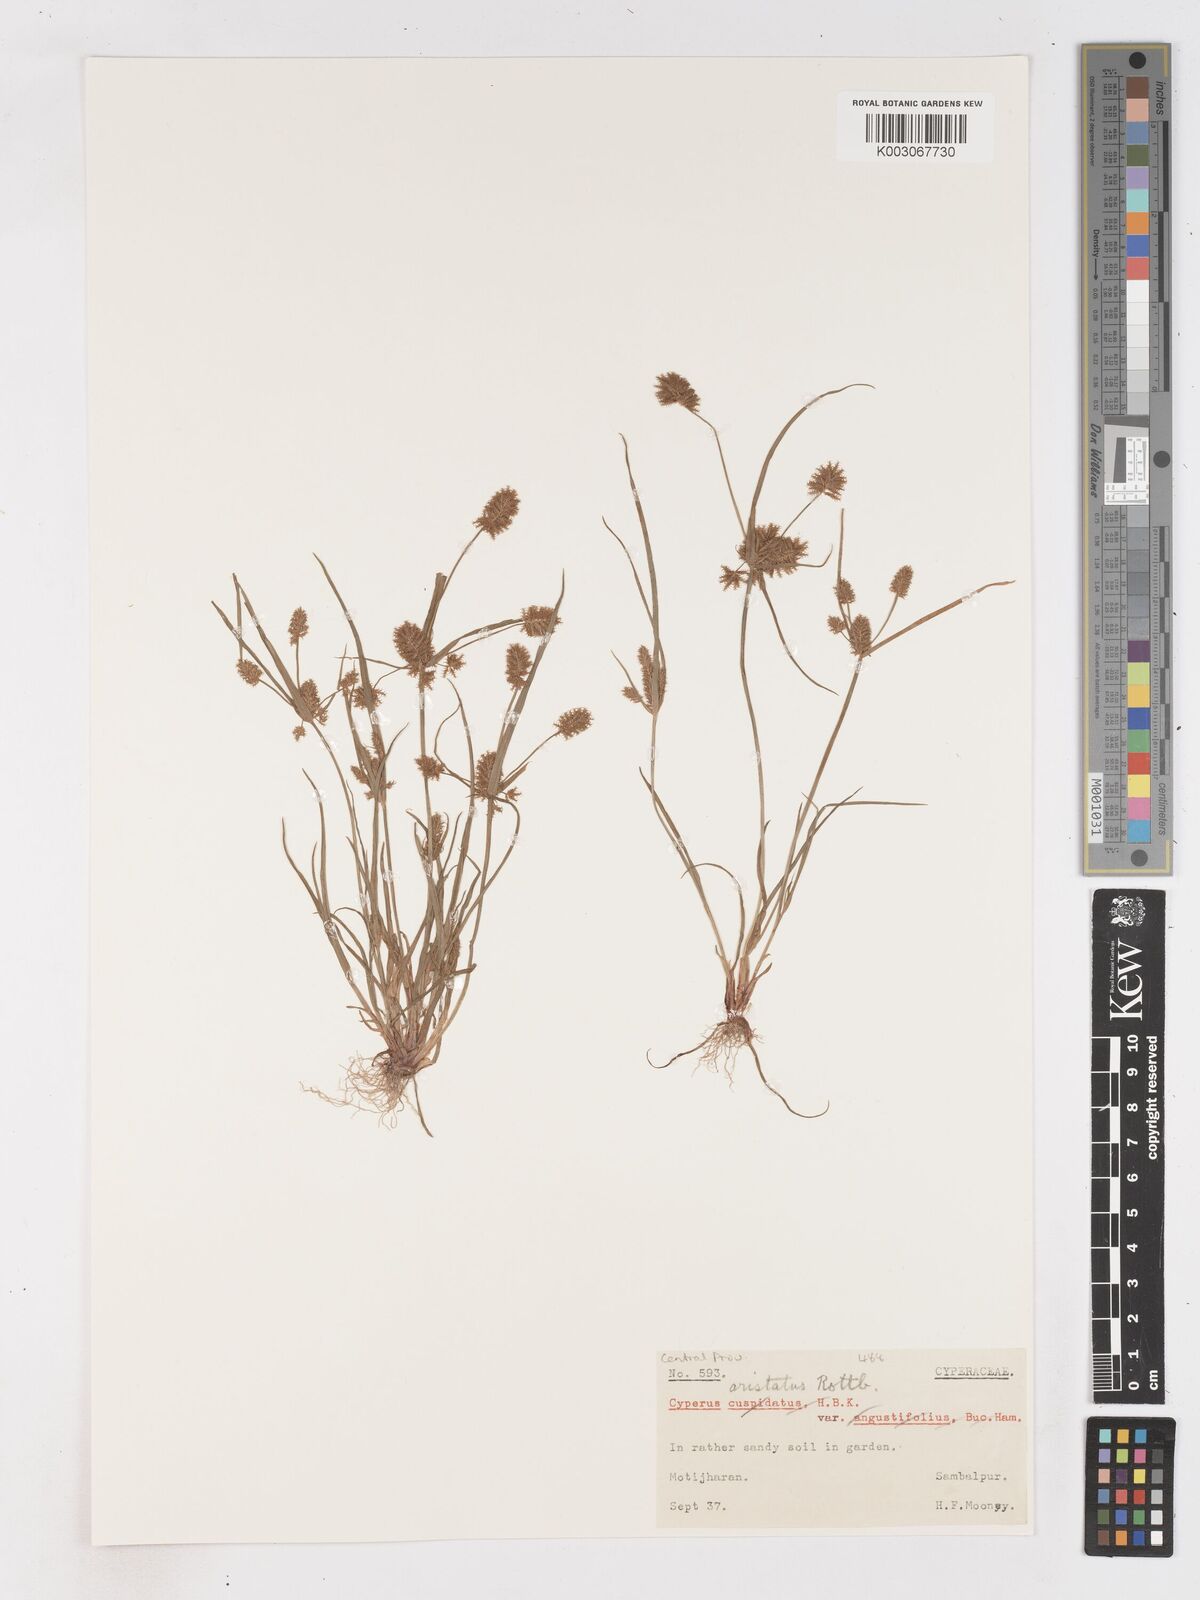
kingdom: Plantae
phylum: Tracheophyta
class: Liliopsida
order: Poales
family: Cyperaceae
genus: Cyperus
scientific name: Cyperus squarrosus
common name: Awned cyperus
